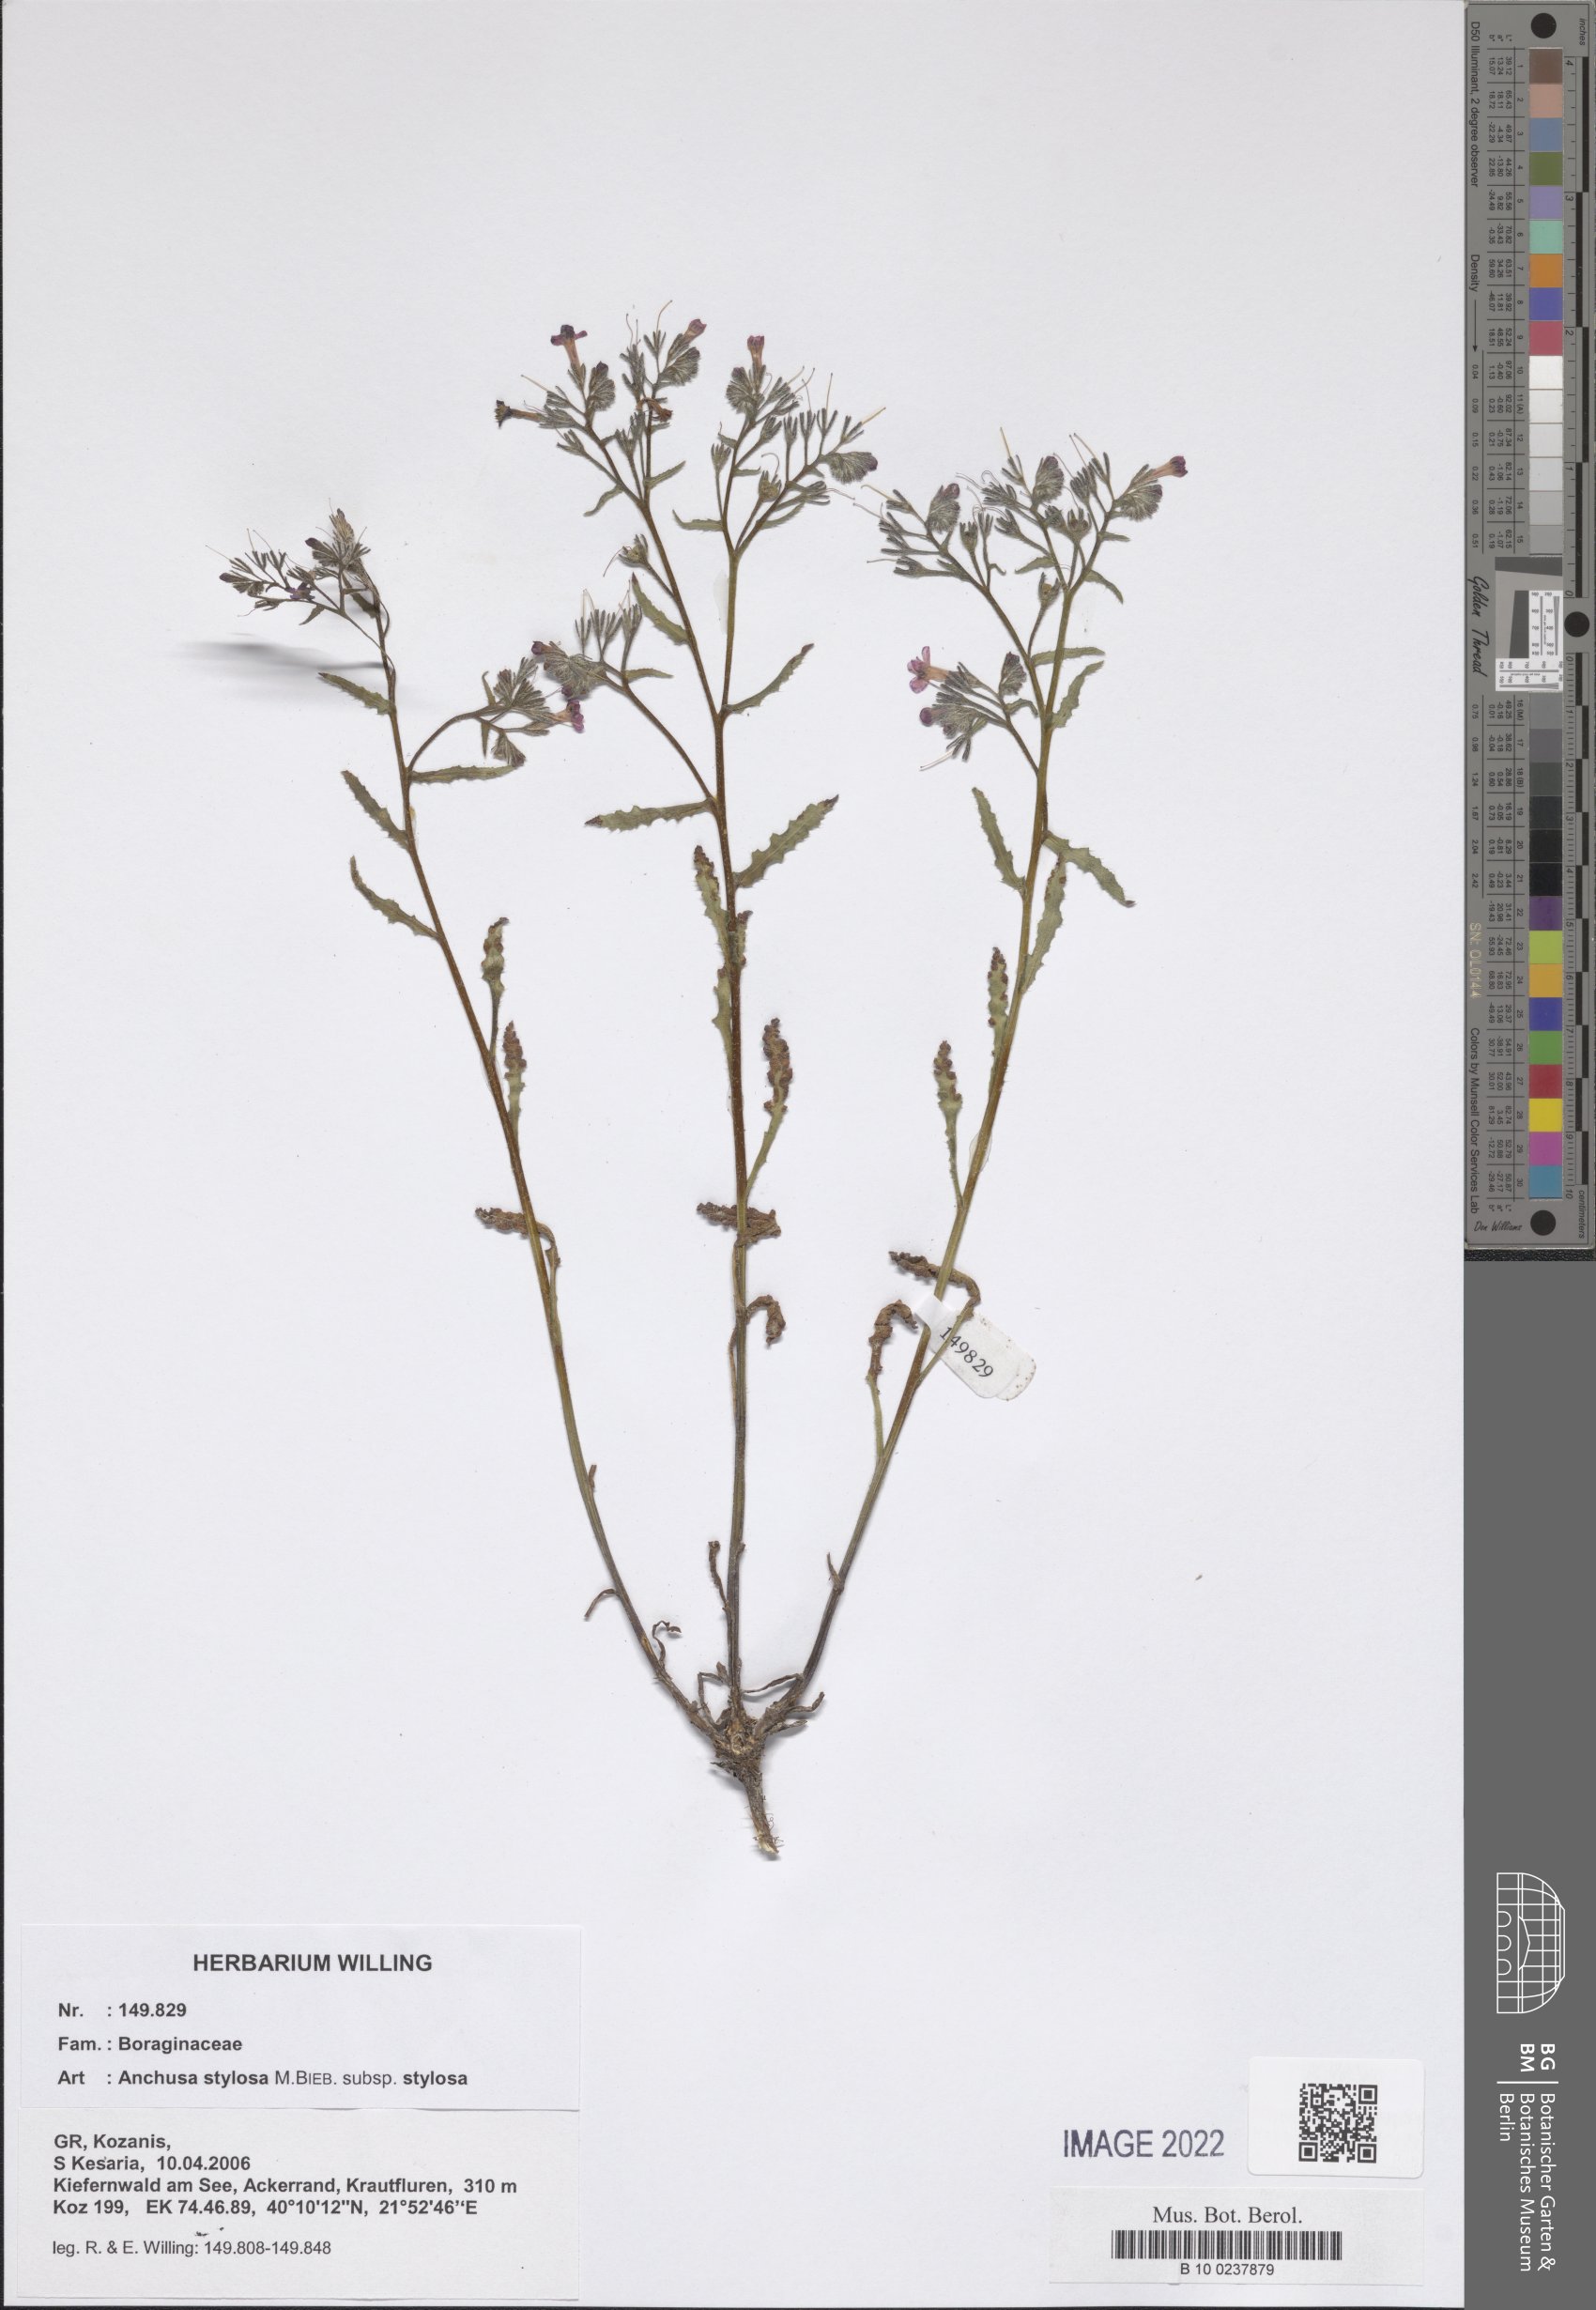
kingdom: Plantae
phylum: Tracheophyta
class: Magnoliopsida
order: Boraginales
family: Boraginaceae
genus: Anchusa
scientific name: Anchusa stylosa
